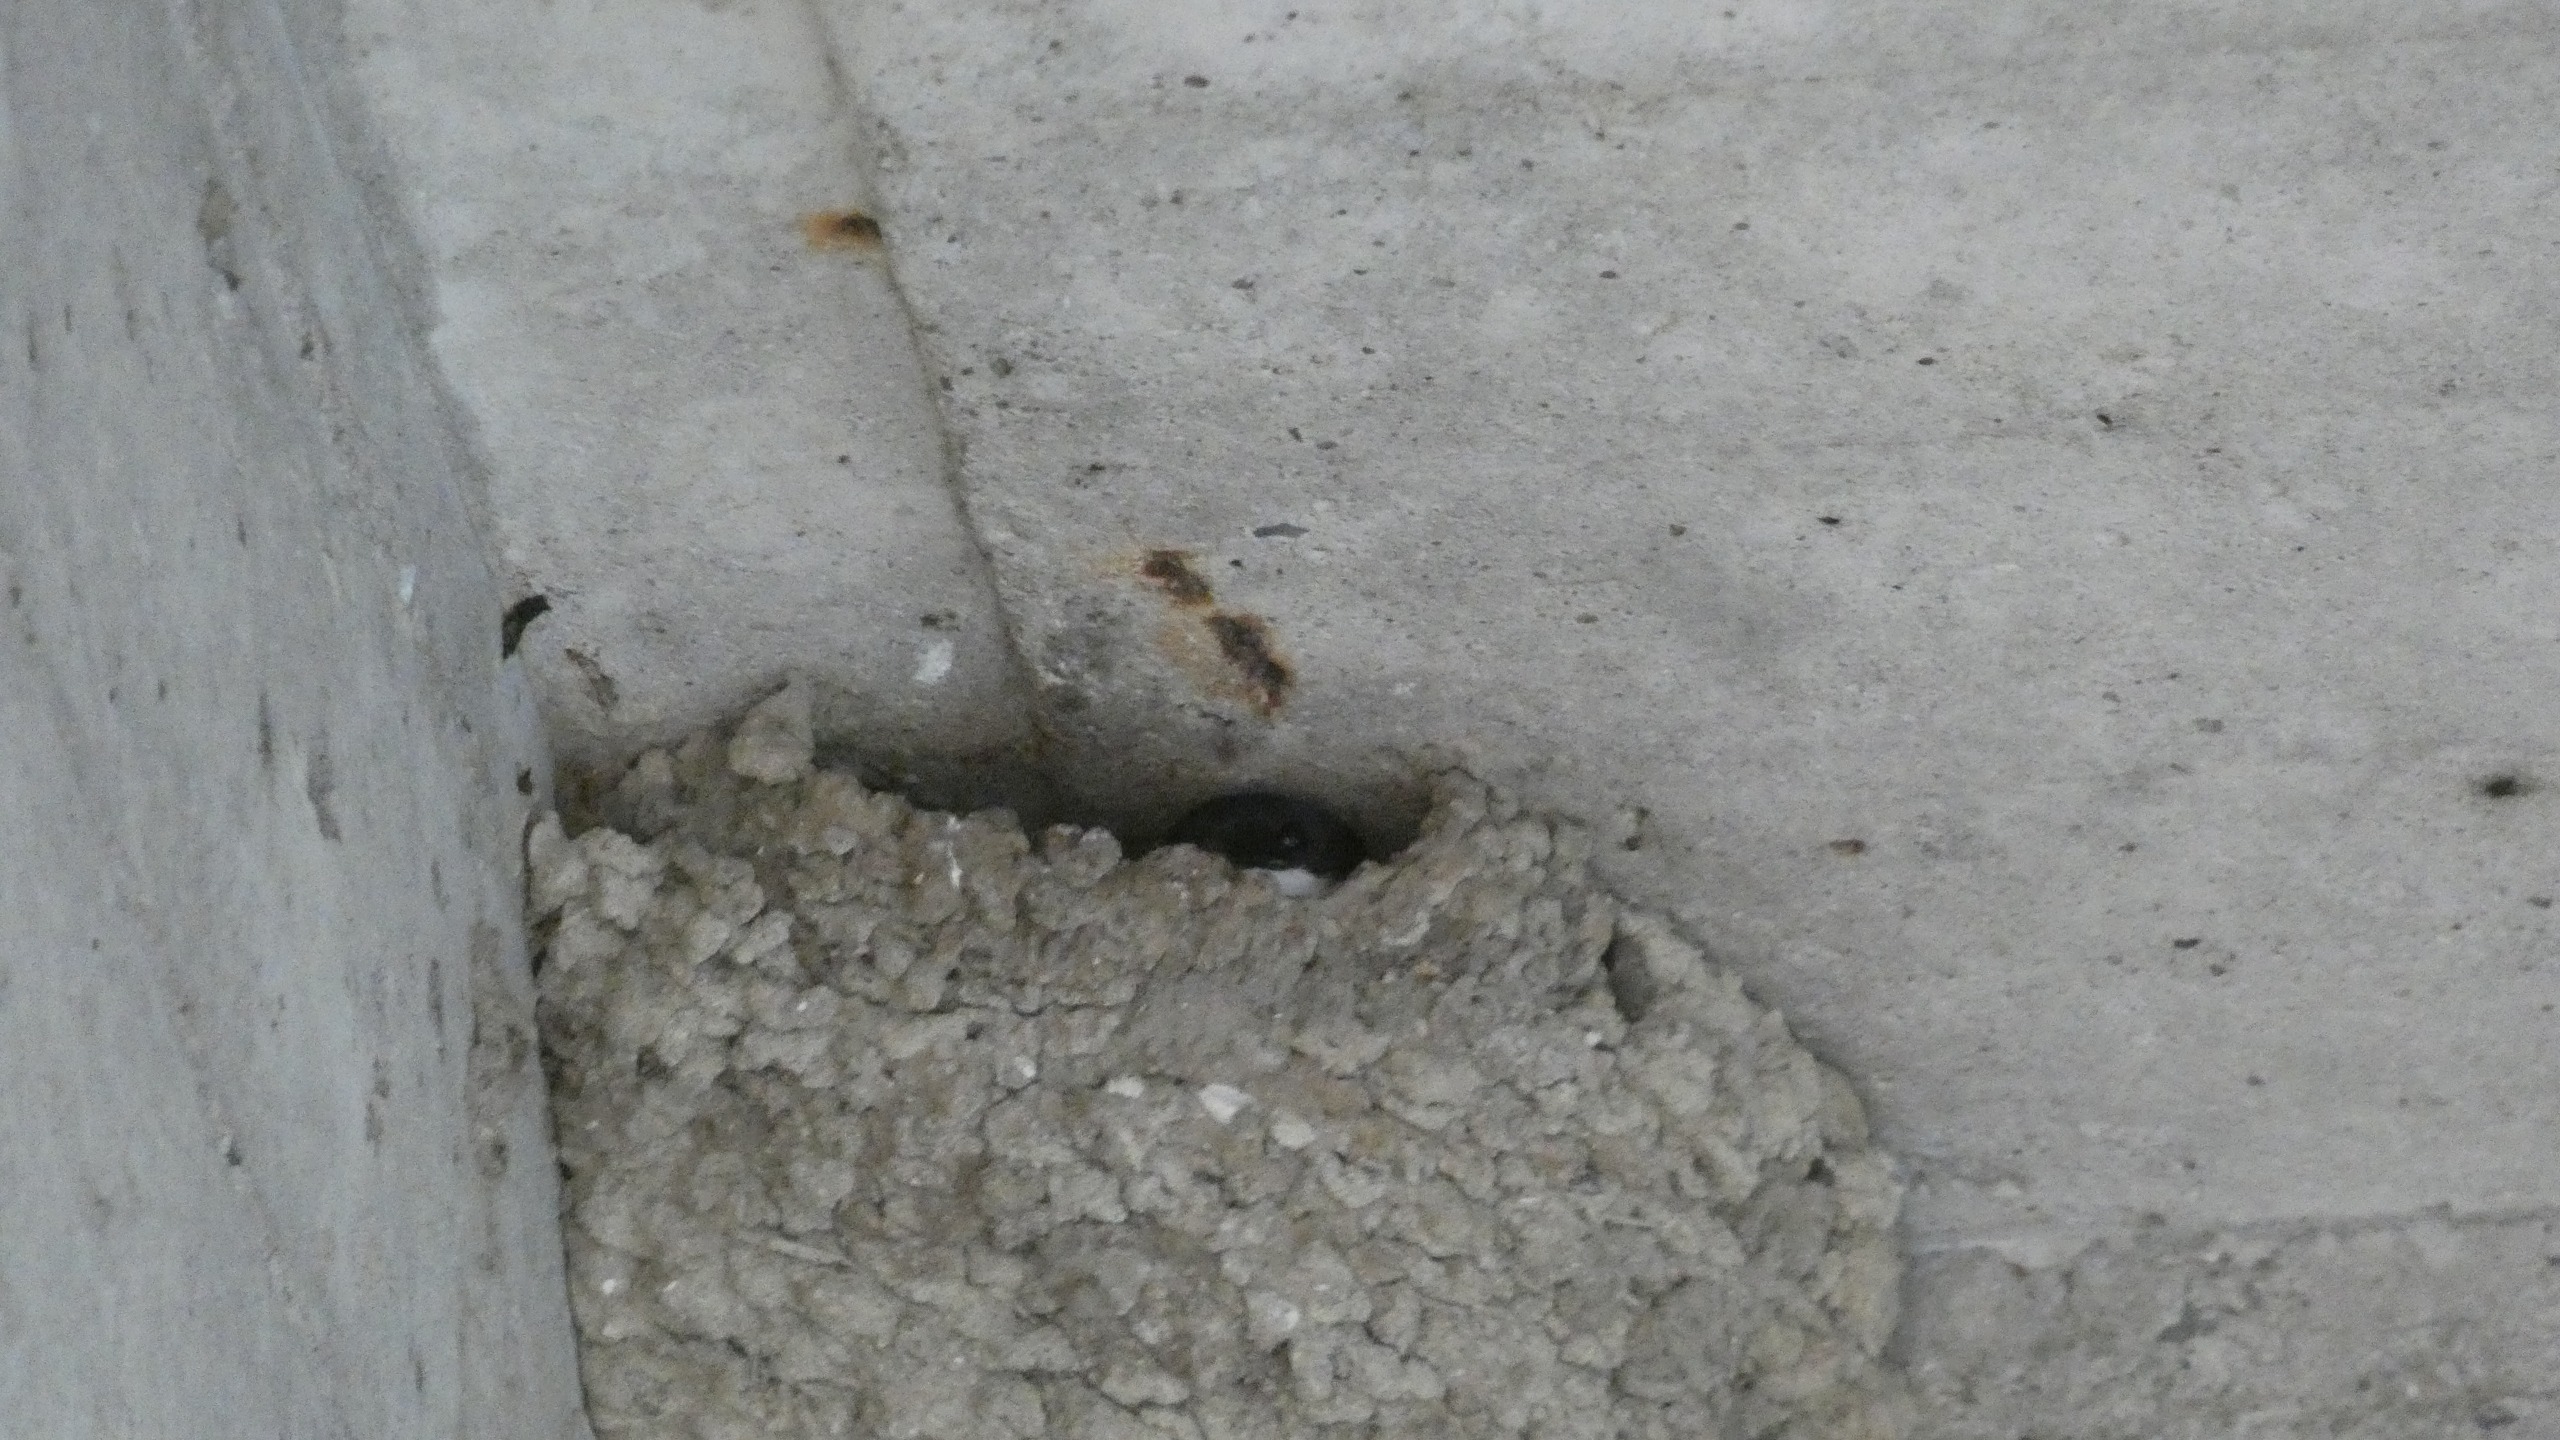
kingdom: Animalia
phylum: Chordata
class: Aves
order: Passeriformes
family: Hirundinidae
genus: Delichon
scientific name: Delichon urbicum
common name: Bysvale
